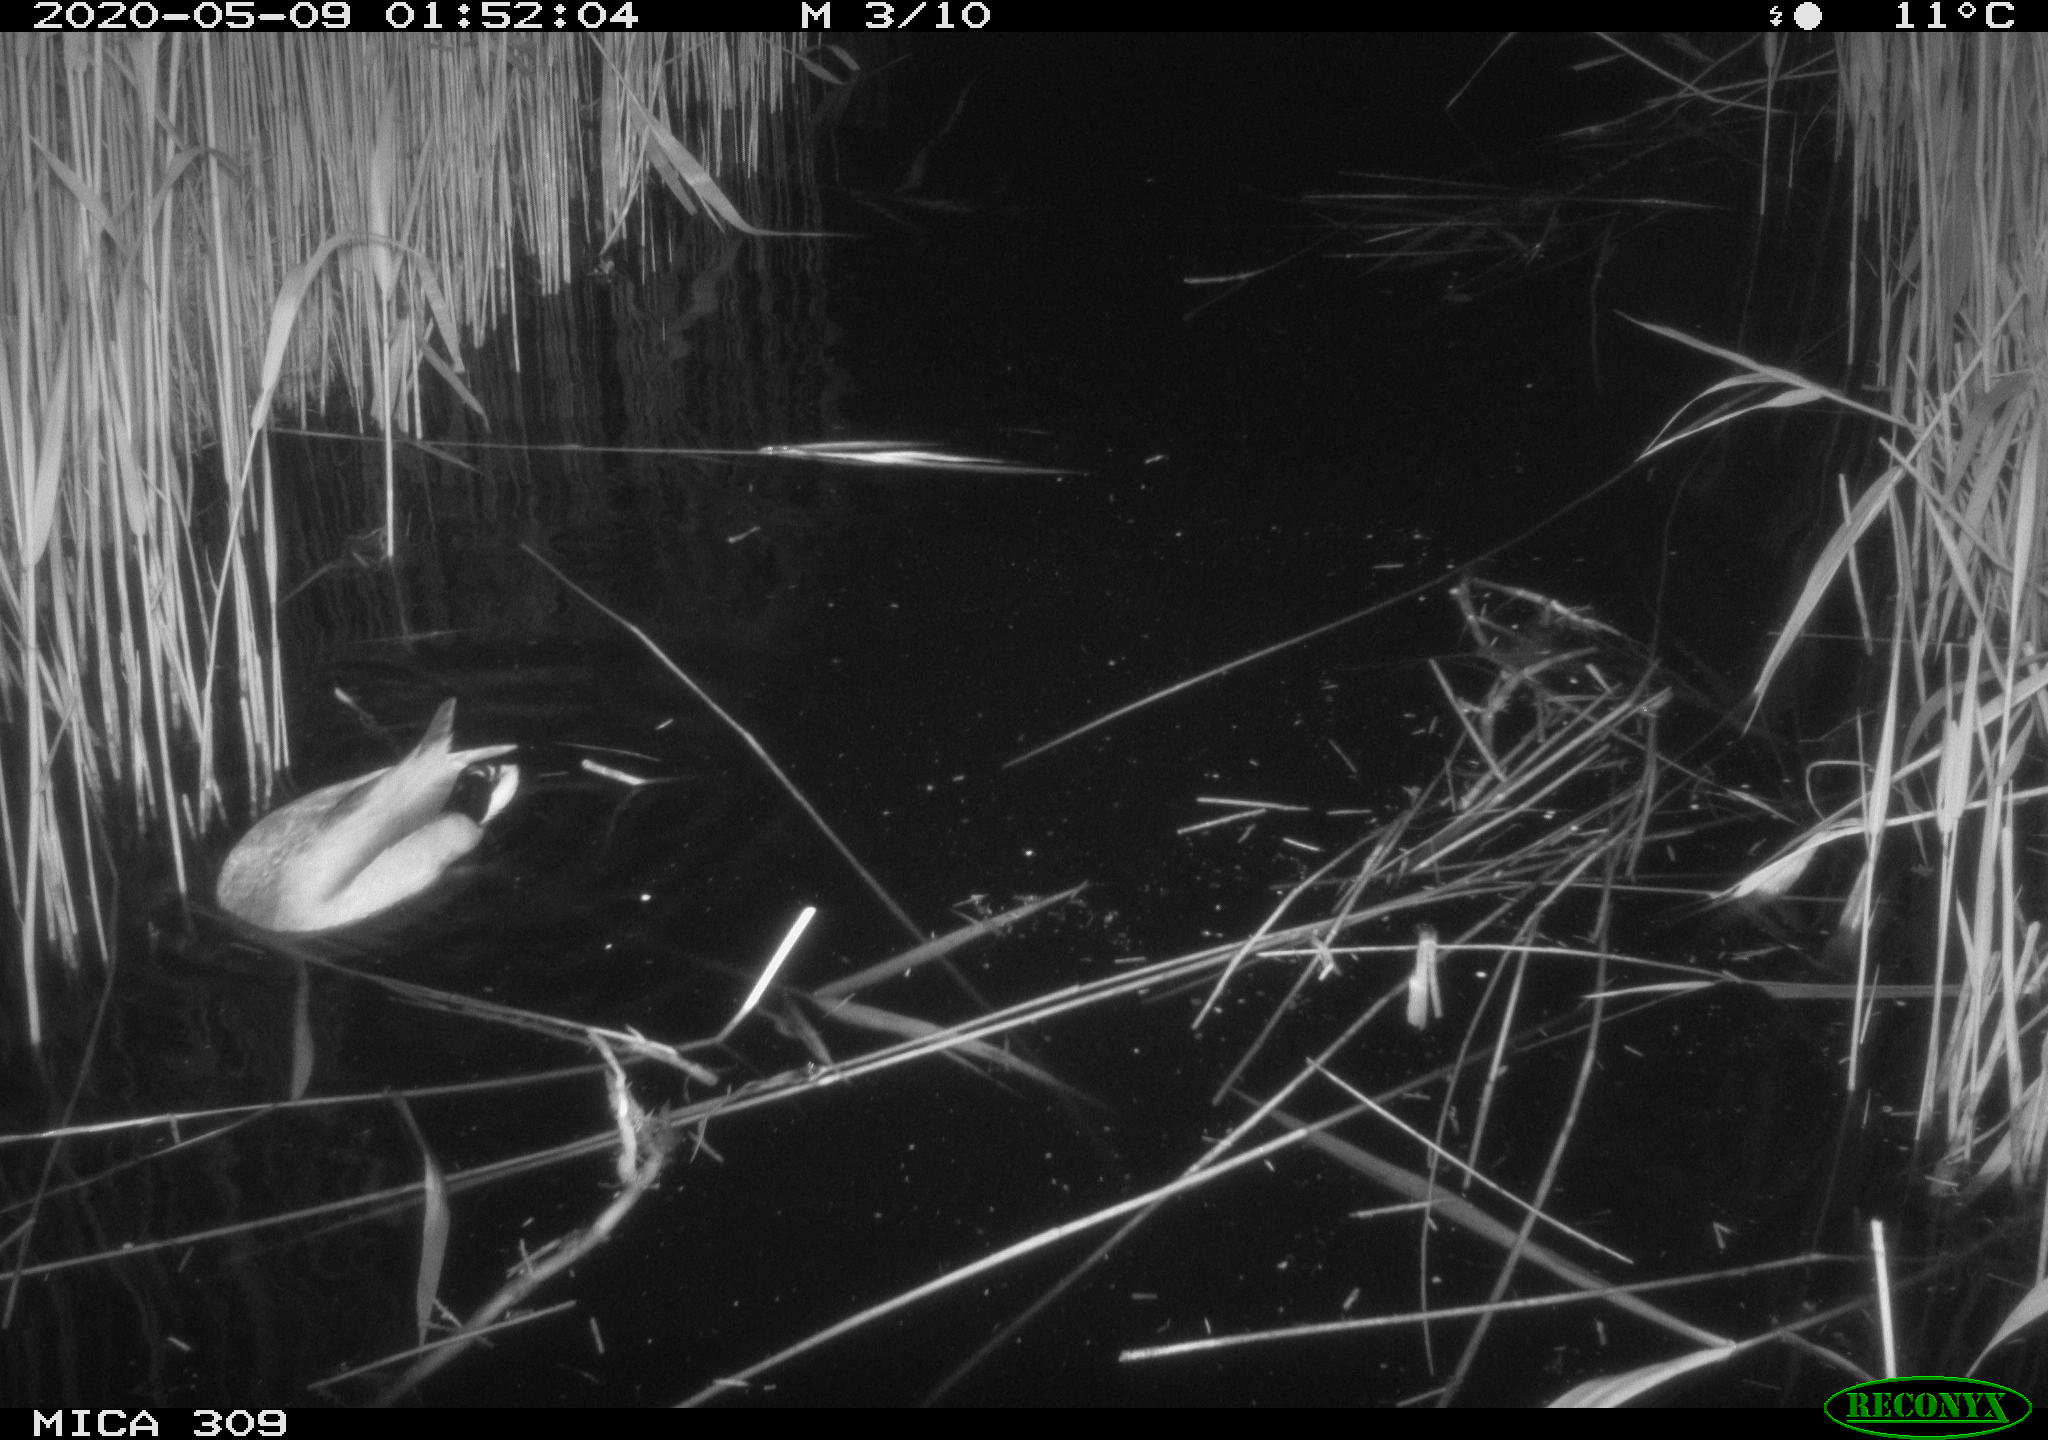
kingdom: Animalia
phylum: Chordata
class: Aves
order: Anseriformes
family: Anatidae
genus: Anas
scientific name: Anas platyrhynchos
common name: Mallard
